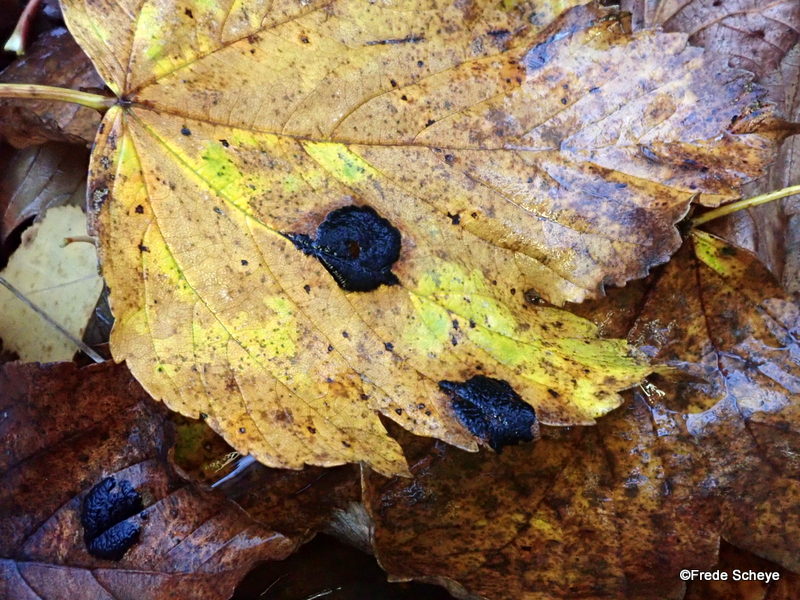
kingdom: Fungi
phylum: Ascomycota
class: Leotiomycetes
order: Rhytismatales
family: Rhytismataceae
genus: Rhytisma
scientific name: Rhytisma acerinum
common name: ahorn-rynkeplet
